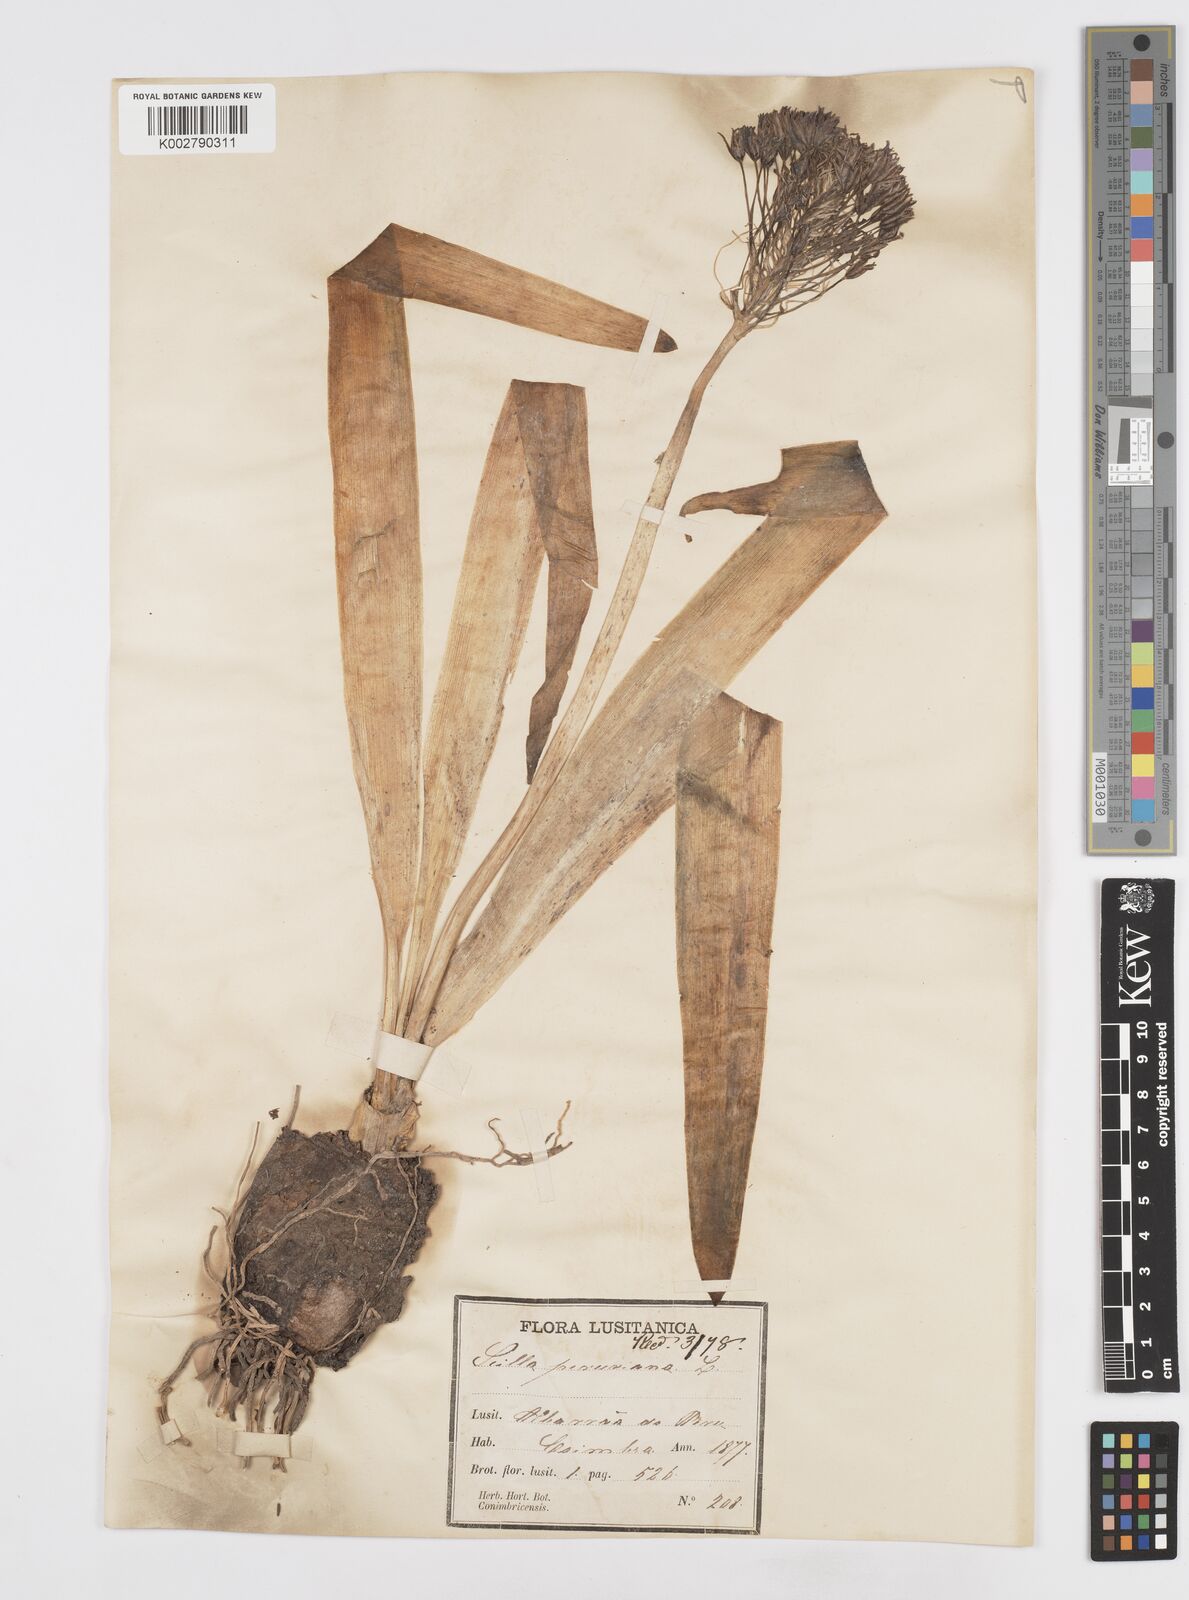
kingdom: Plantae
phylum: Tracheophyta
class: Liliopsida
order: Asparagales
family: Asparagaceae
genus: Scilla
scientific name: Scilla peruviana
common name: Portuguese squill
